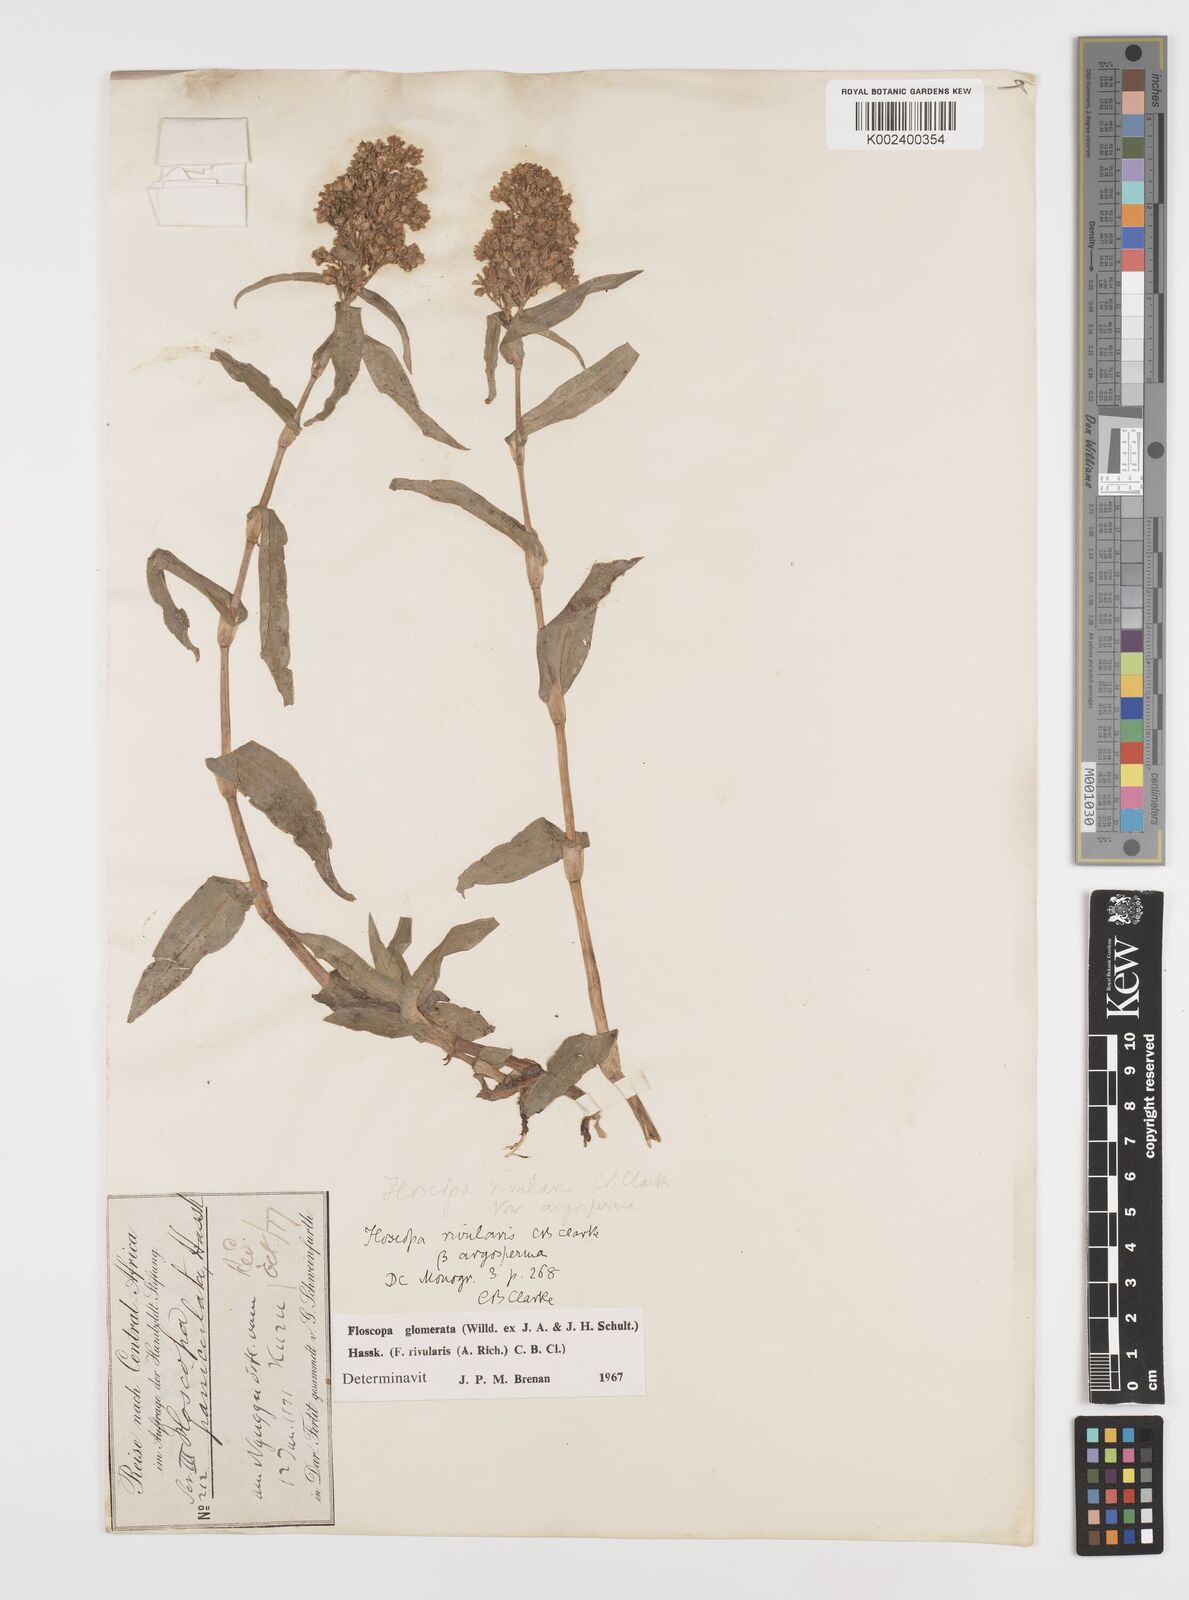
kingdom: Plantae
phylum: Tracheophyta
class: Liliopsida
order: Commelinales
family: Commelinaceae
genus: Floscopa
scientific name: Floscopa glomerata
